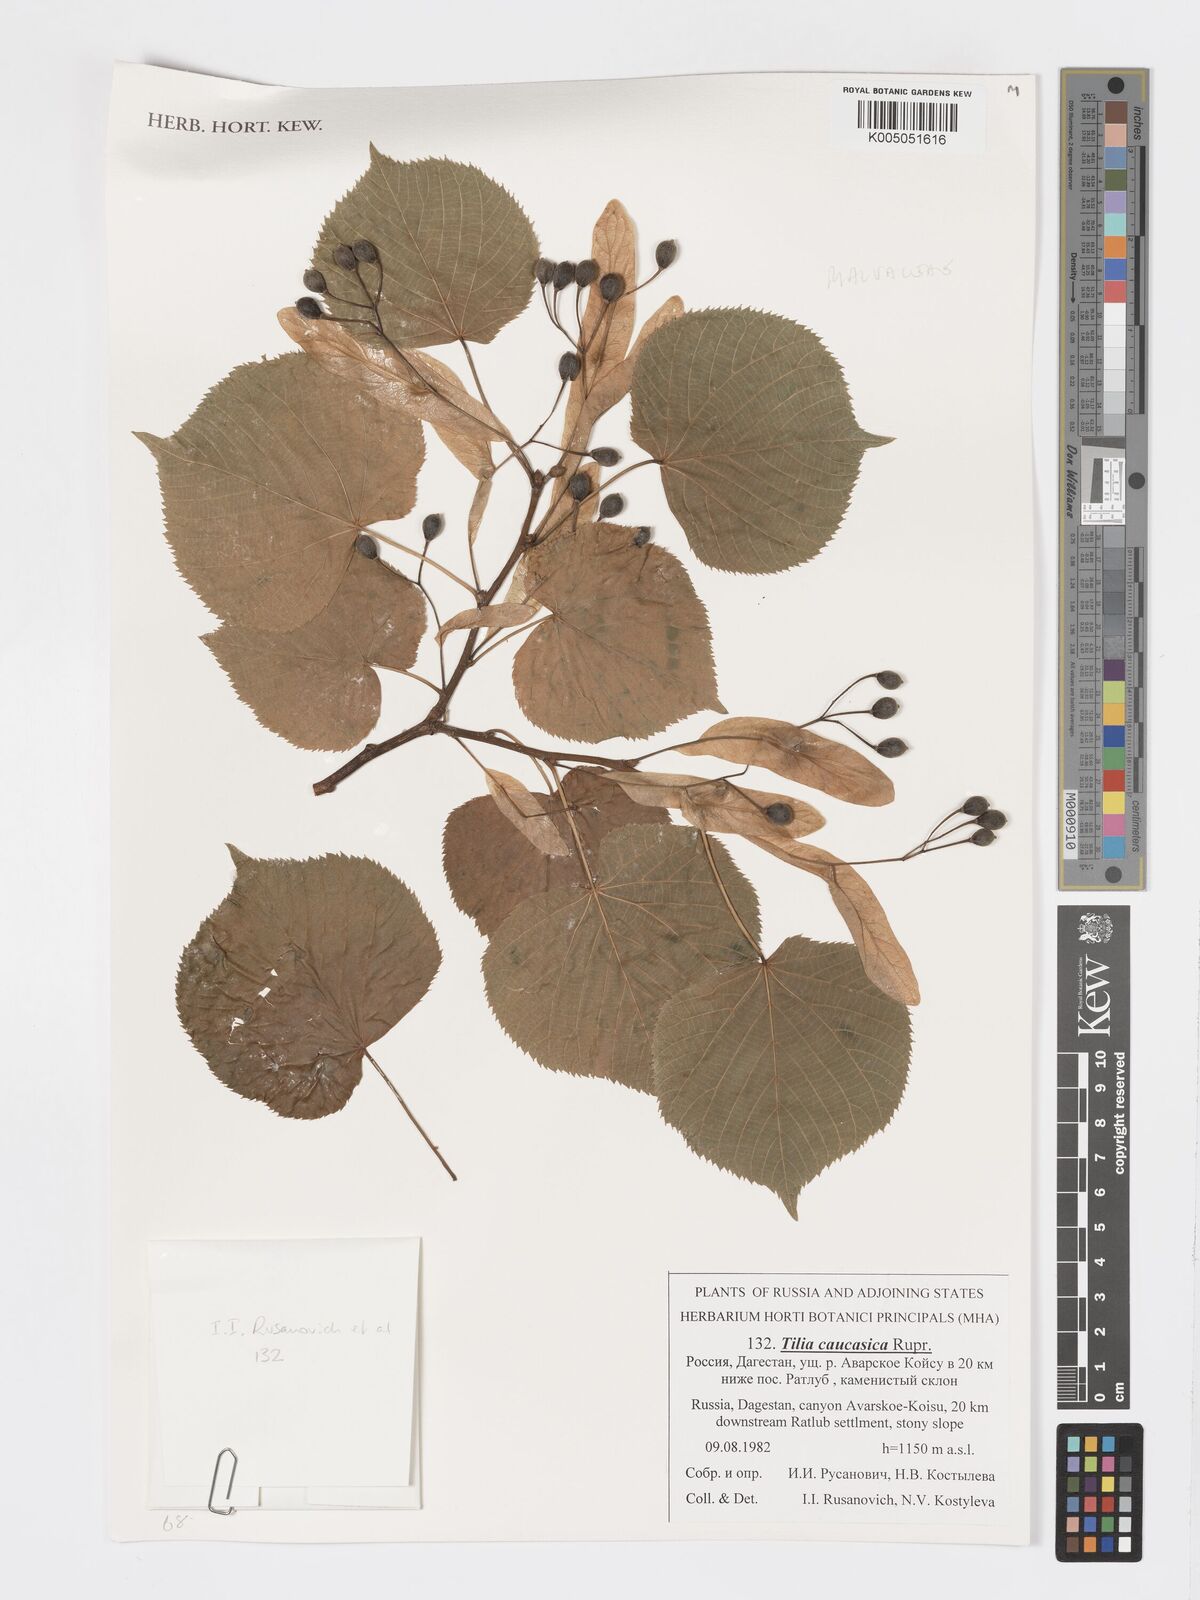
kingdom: Plantae
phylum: Tracheophyta
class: Magnoliopsida
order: Malvales
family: Malvaceae
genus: Tilia
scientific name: Tilia dasystyla
